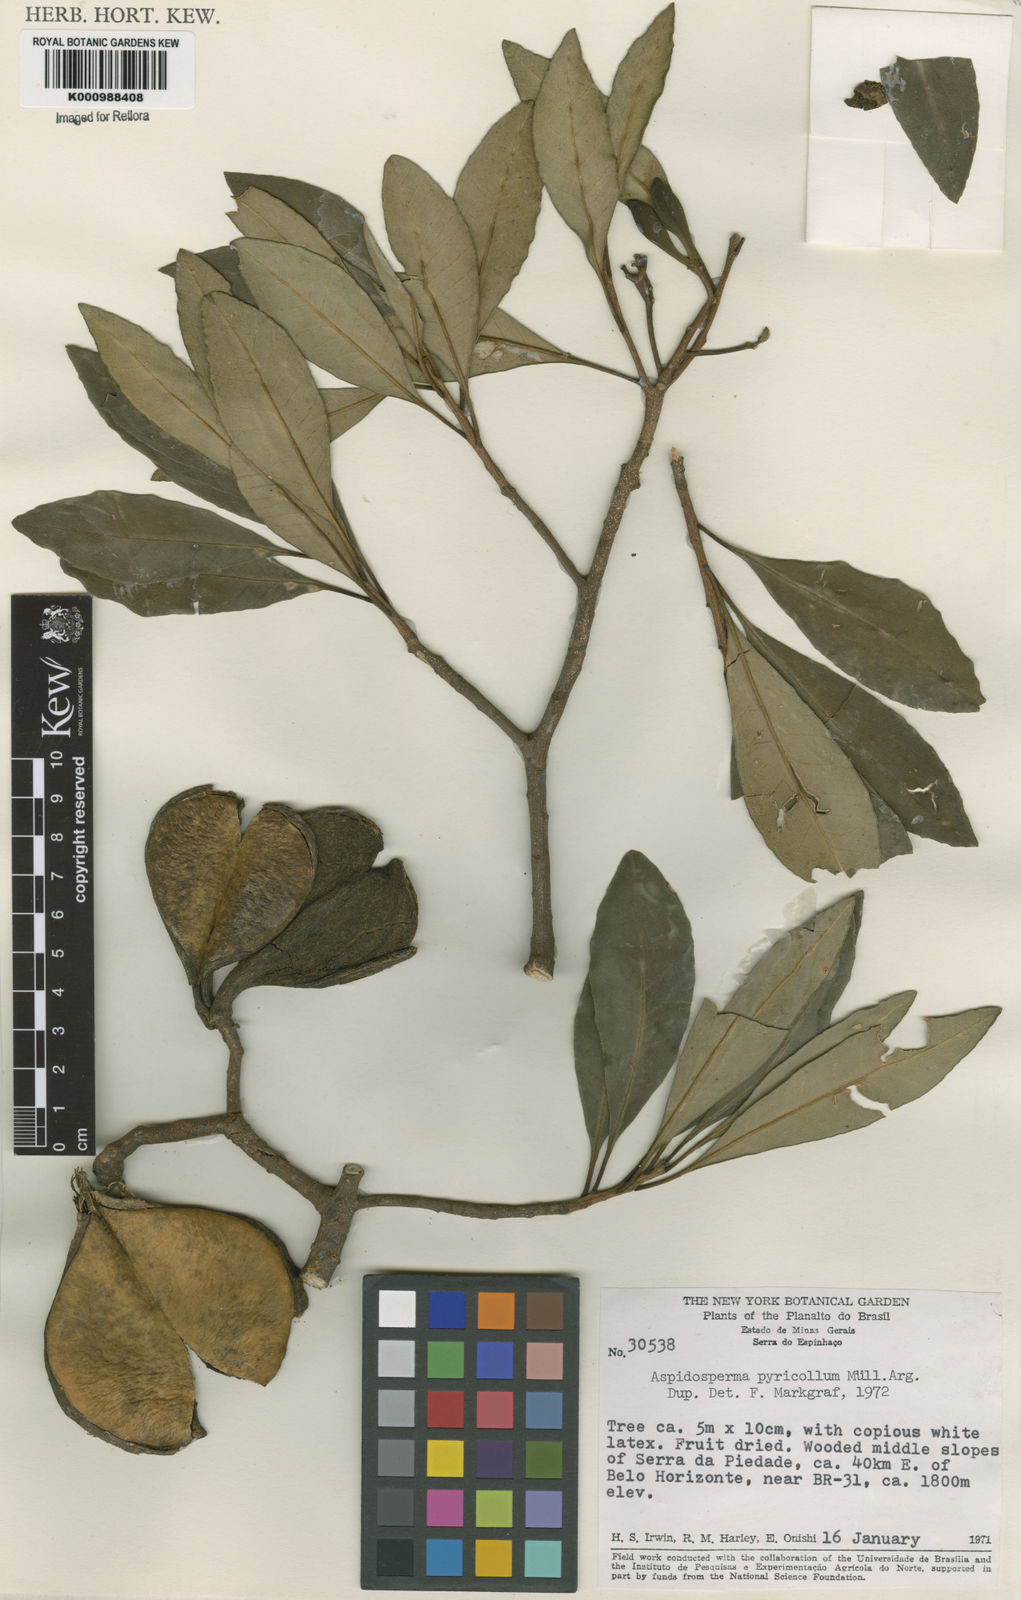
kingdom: Plantae
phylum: Tracheophyta
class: Magnoliopsida
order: Gentianales
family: Apocynaceae
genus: Aspidosperma
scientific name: Aspidosperma
